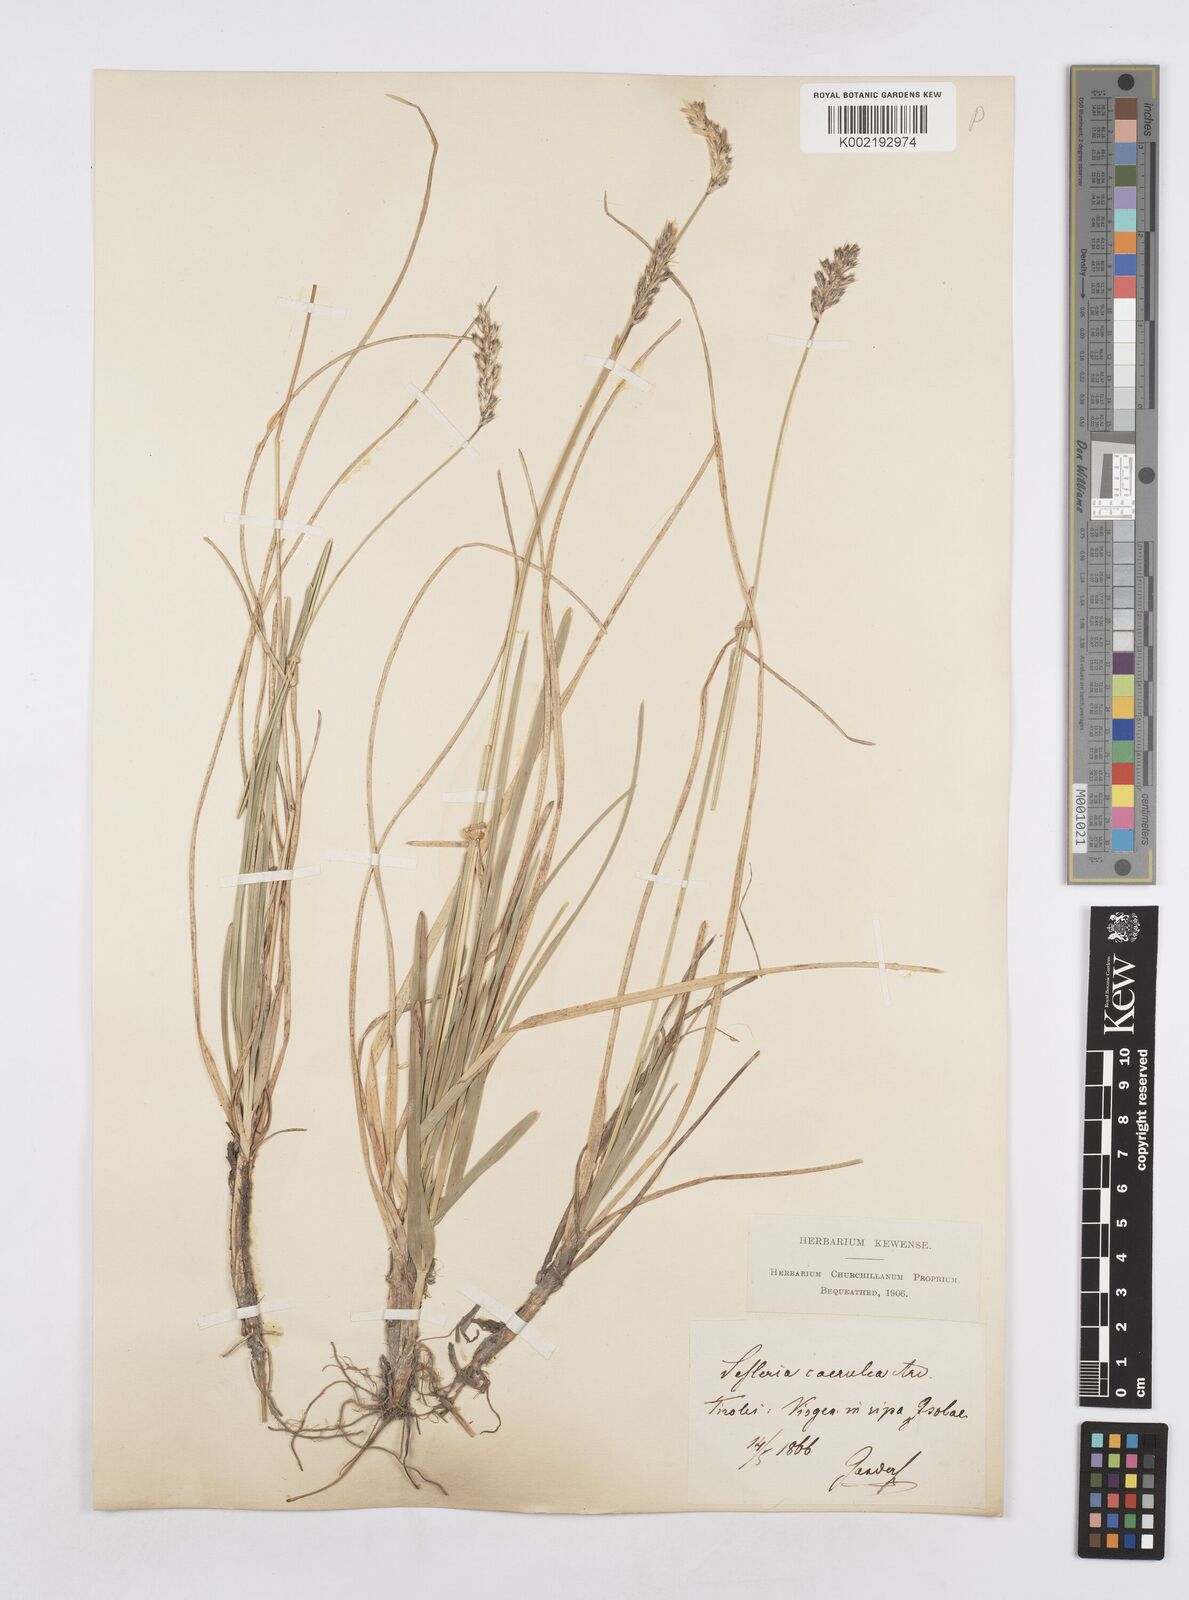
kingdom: Plantae
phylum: Tracheophyta
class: Liliopsida
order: Poales
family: Poaceae
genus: Sesleria
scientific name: Sesleria caerulea
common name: Blue moor-grass
